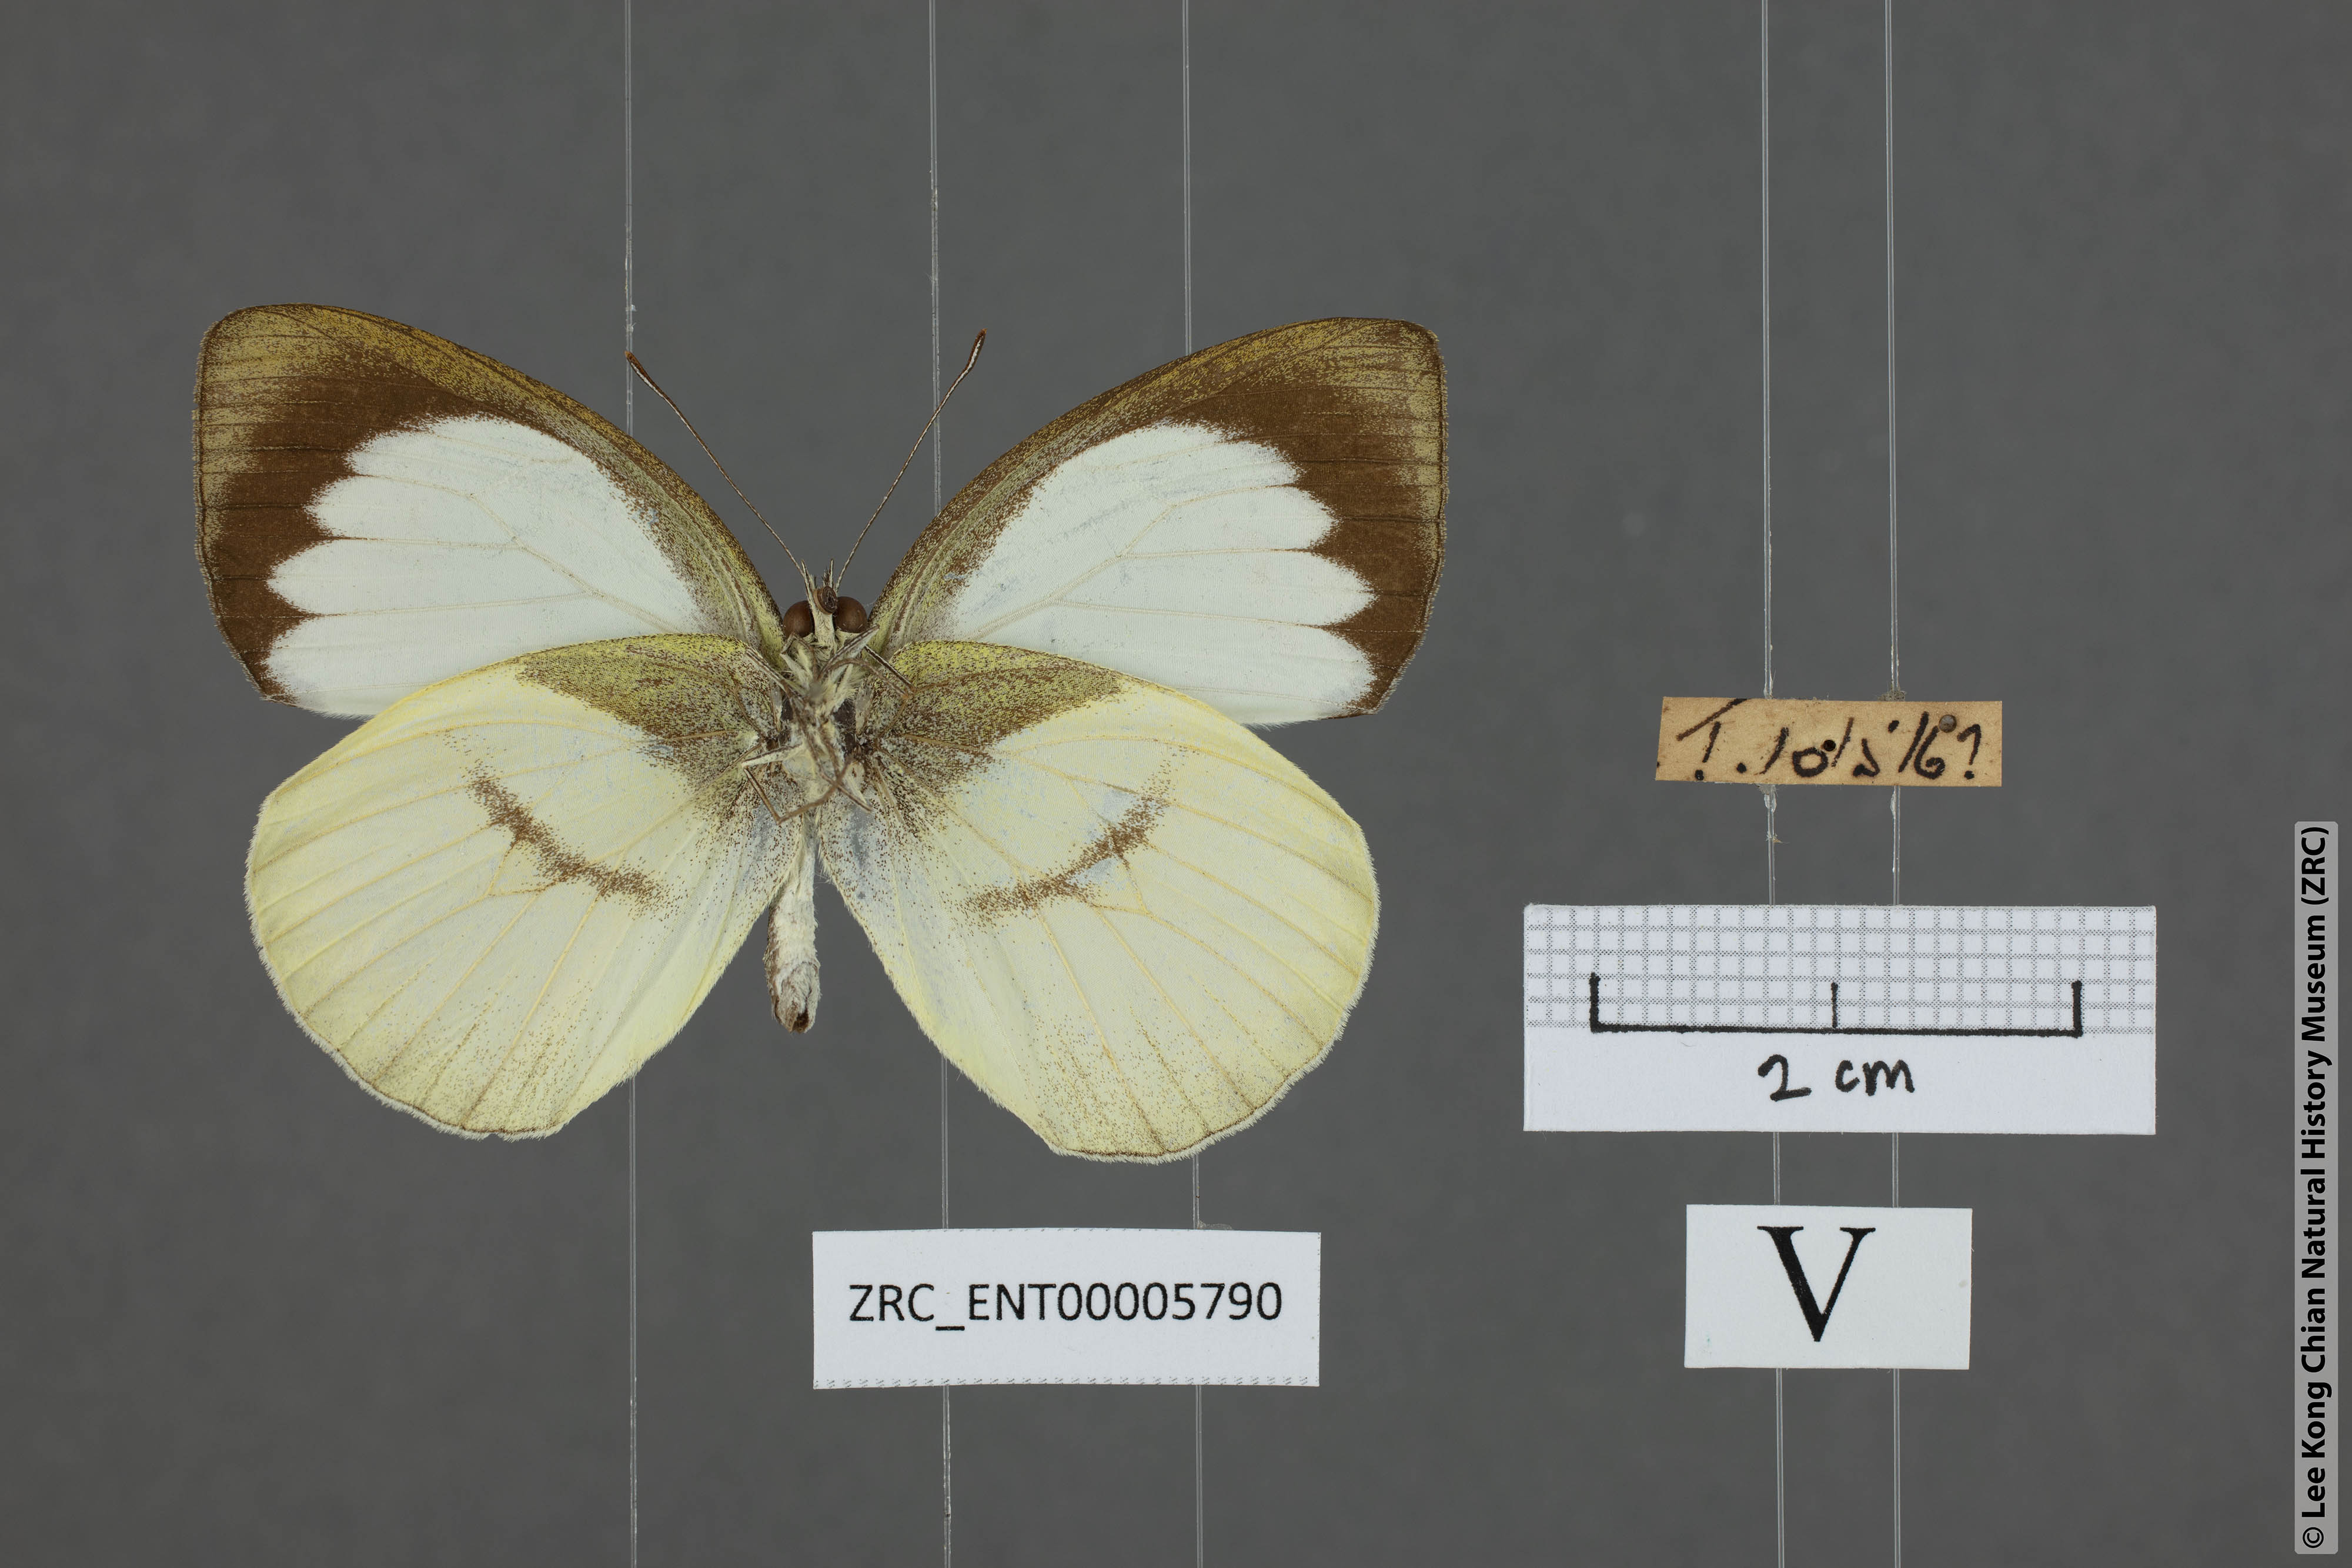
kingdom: Animalia
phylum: Arthropoda
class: Insecta
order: Lepidoptera
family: Pieridae
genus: Phrissura
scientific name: Phrissura aegis
